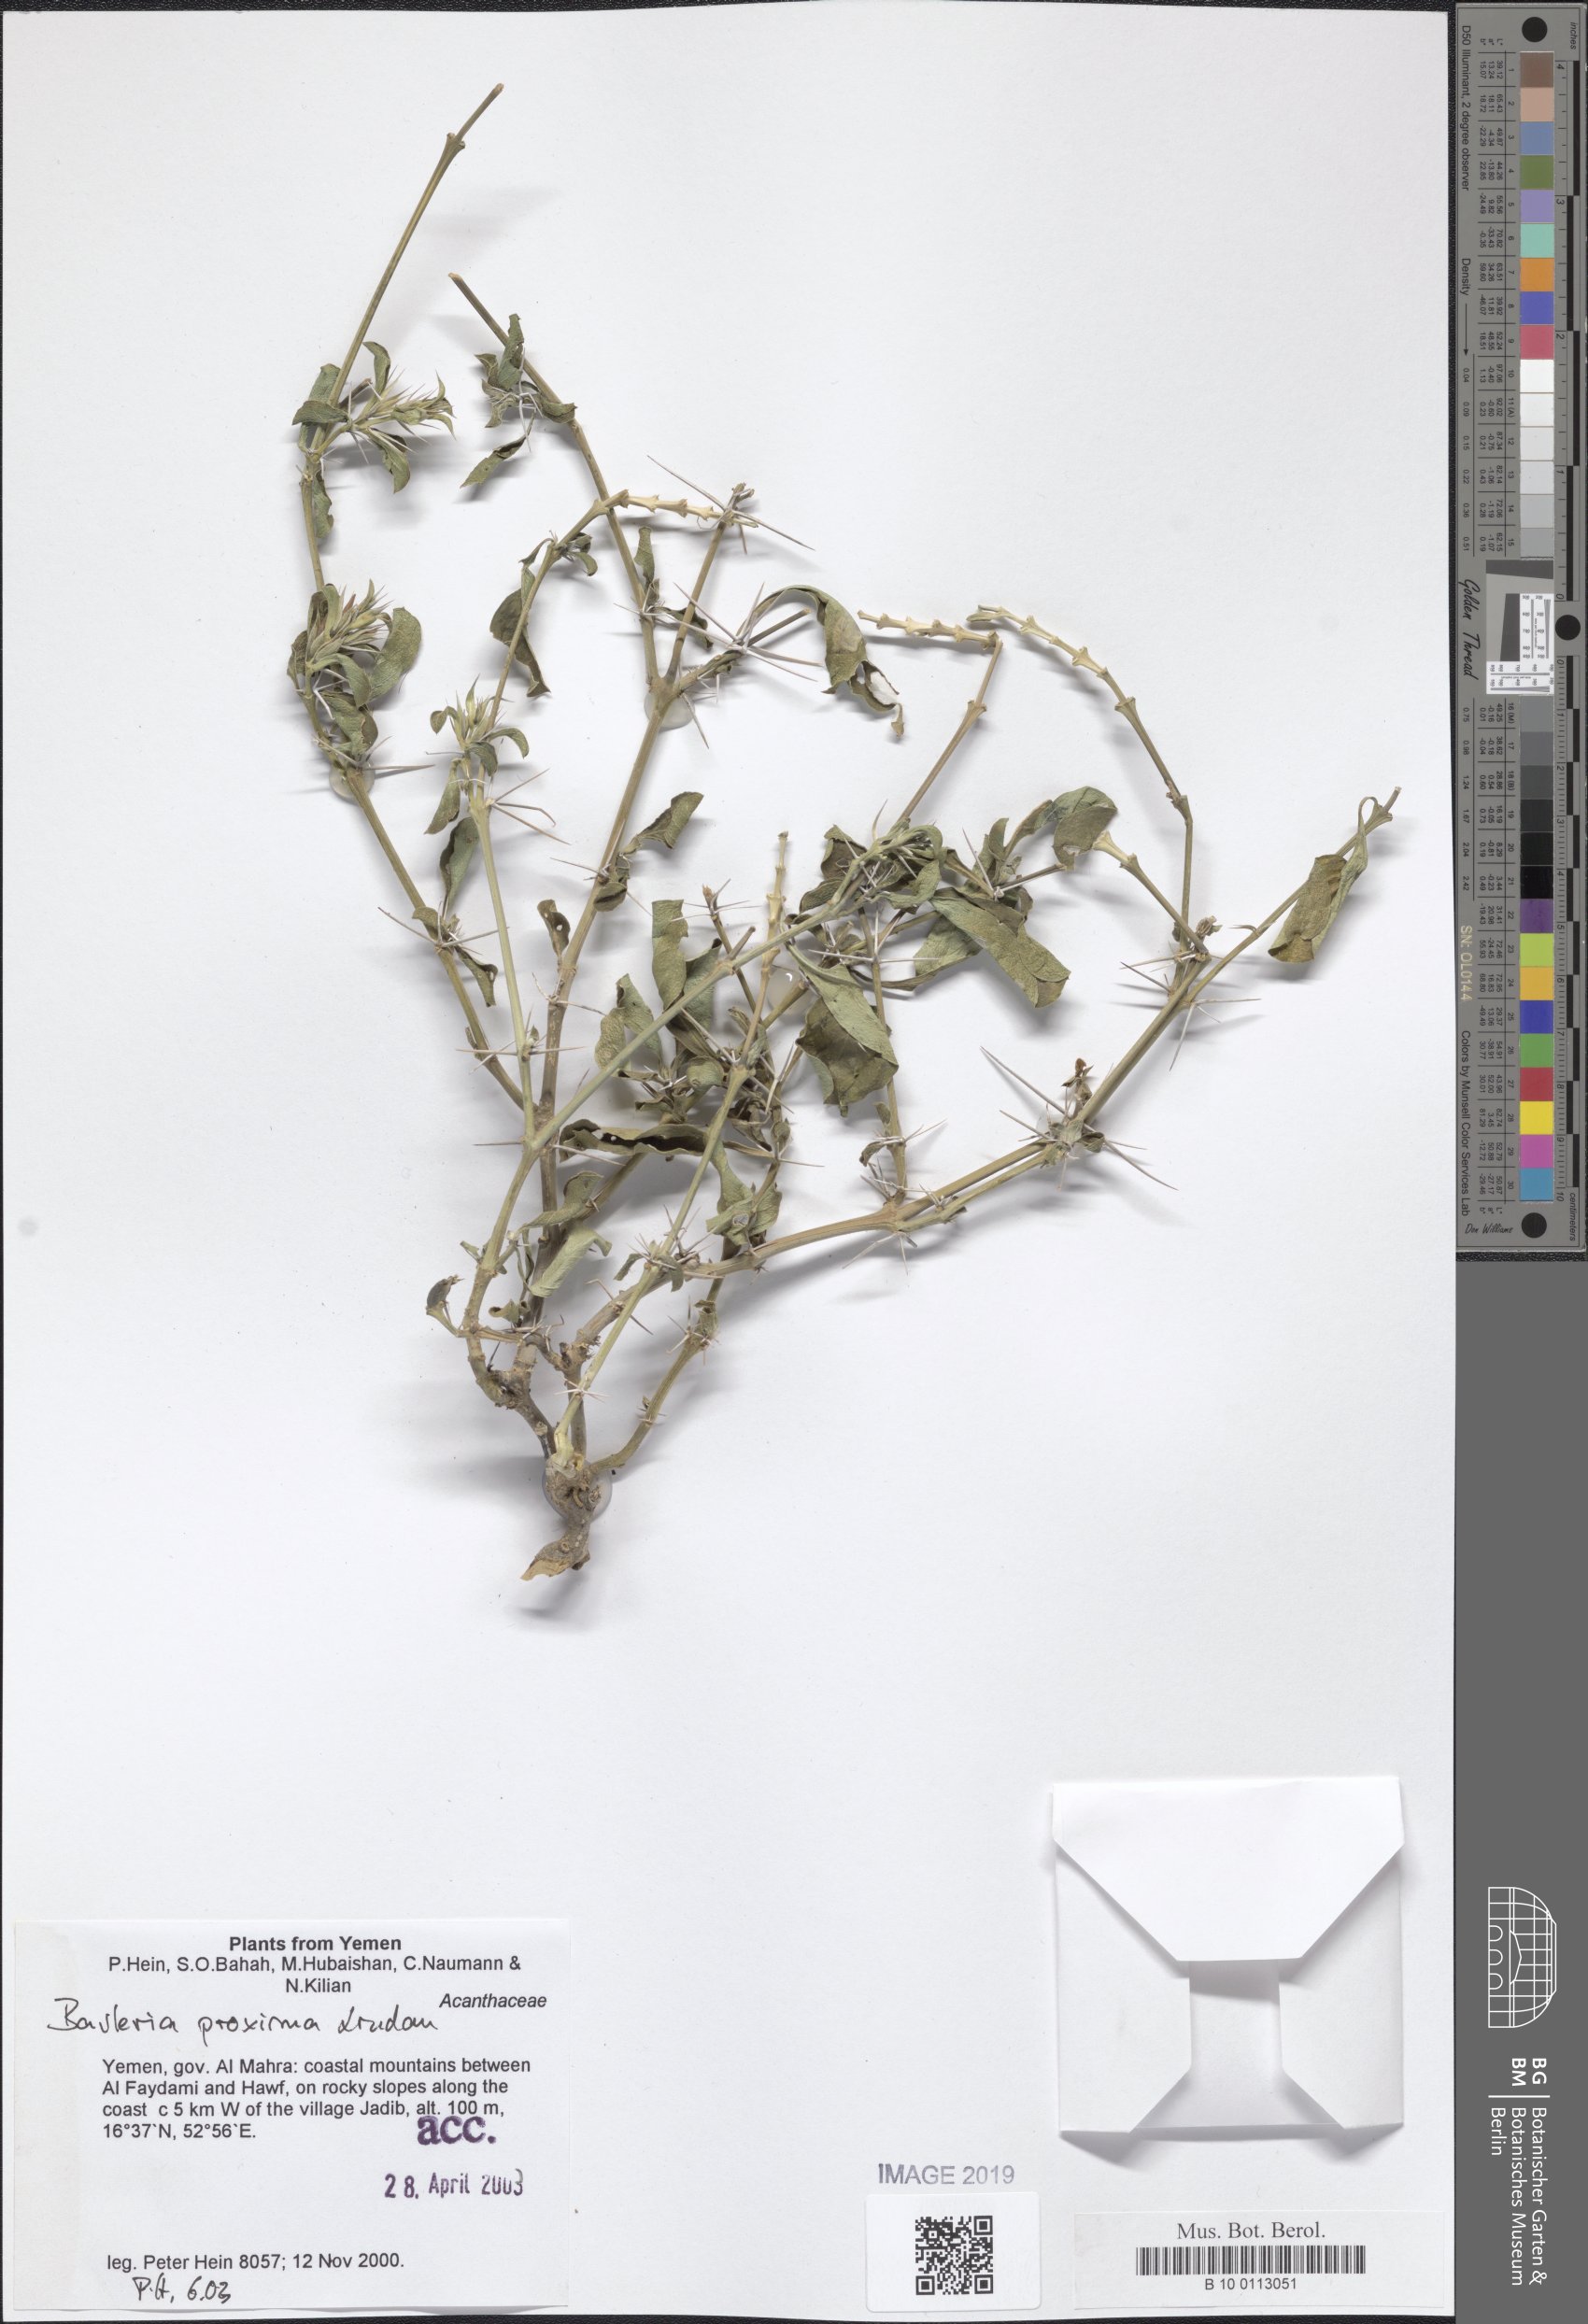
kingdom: Plantae
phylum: Tracheophyta
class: Magnoliopsida
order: Lamiales
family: Acanthaceae
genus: Barleria
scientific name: Barleria proxima
